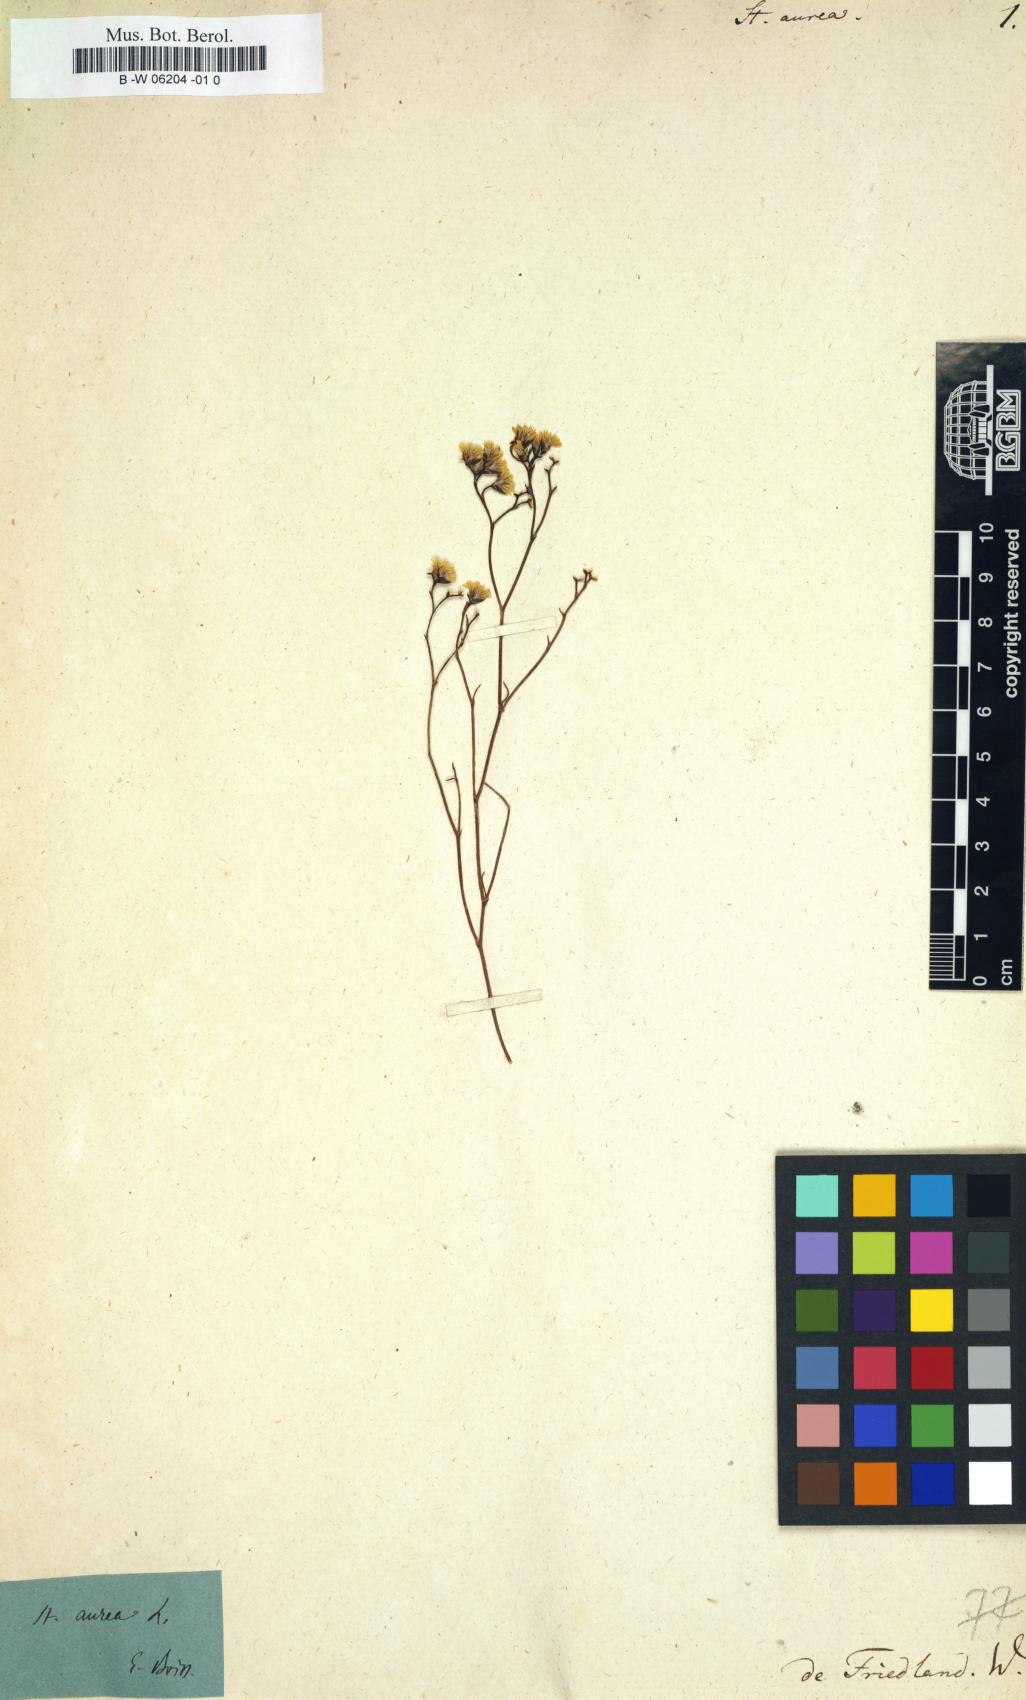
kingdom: Plantae
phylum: Tracheophyta
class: Magnoliopsida
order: Caryophyllales
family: Plumbaginaceae
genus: Limonium
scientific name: Limonium aureum
